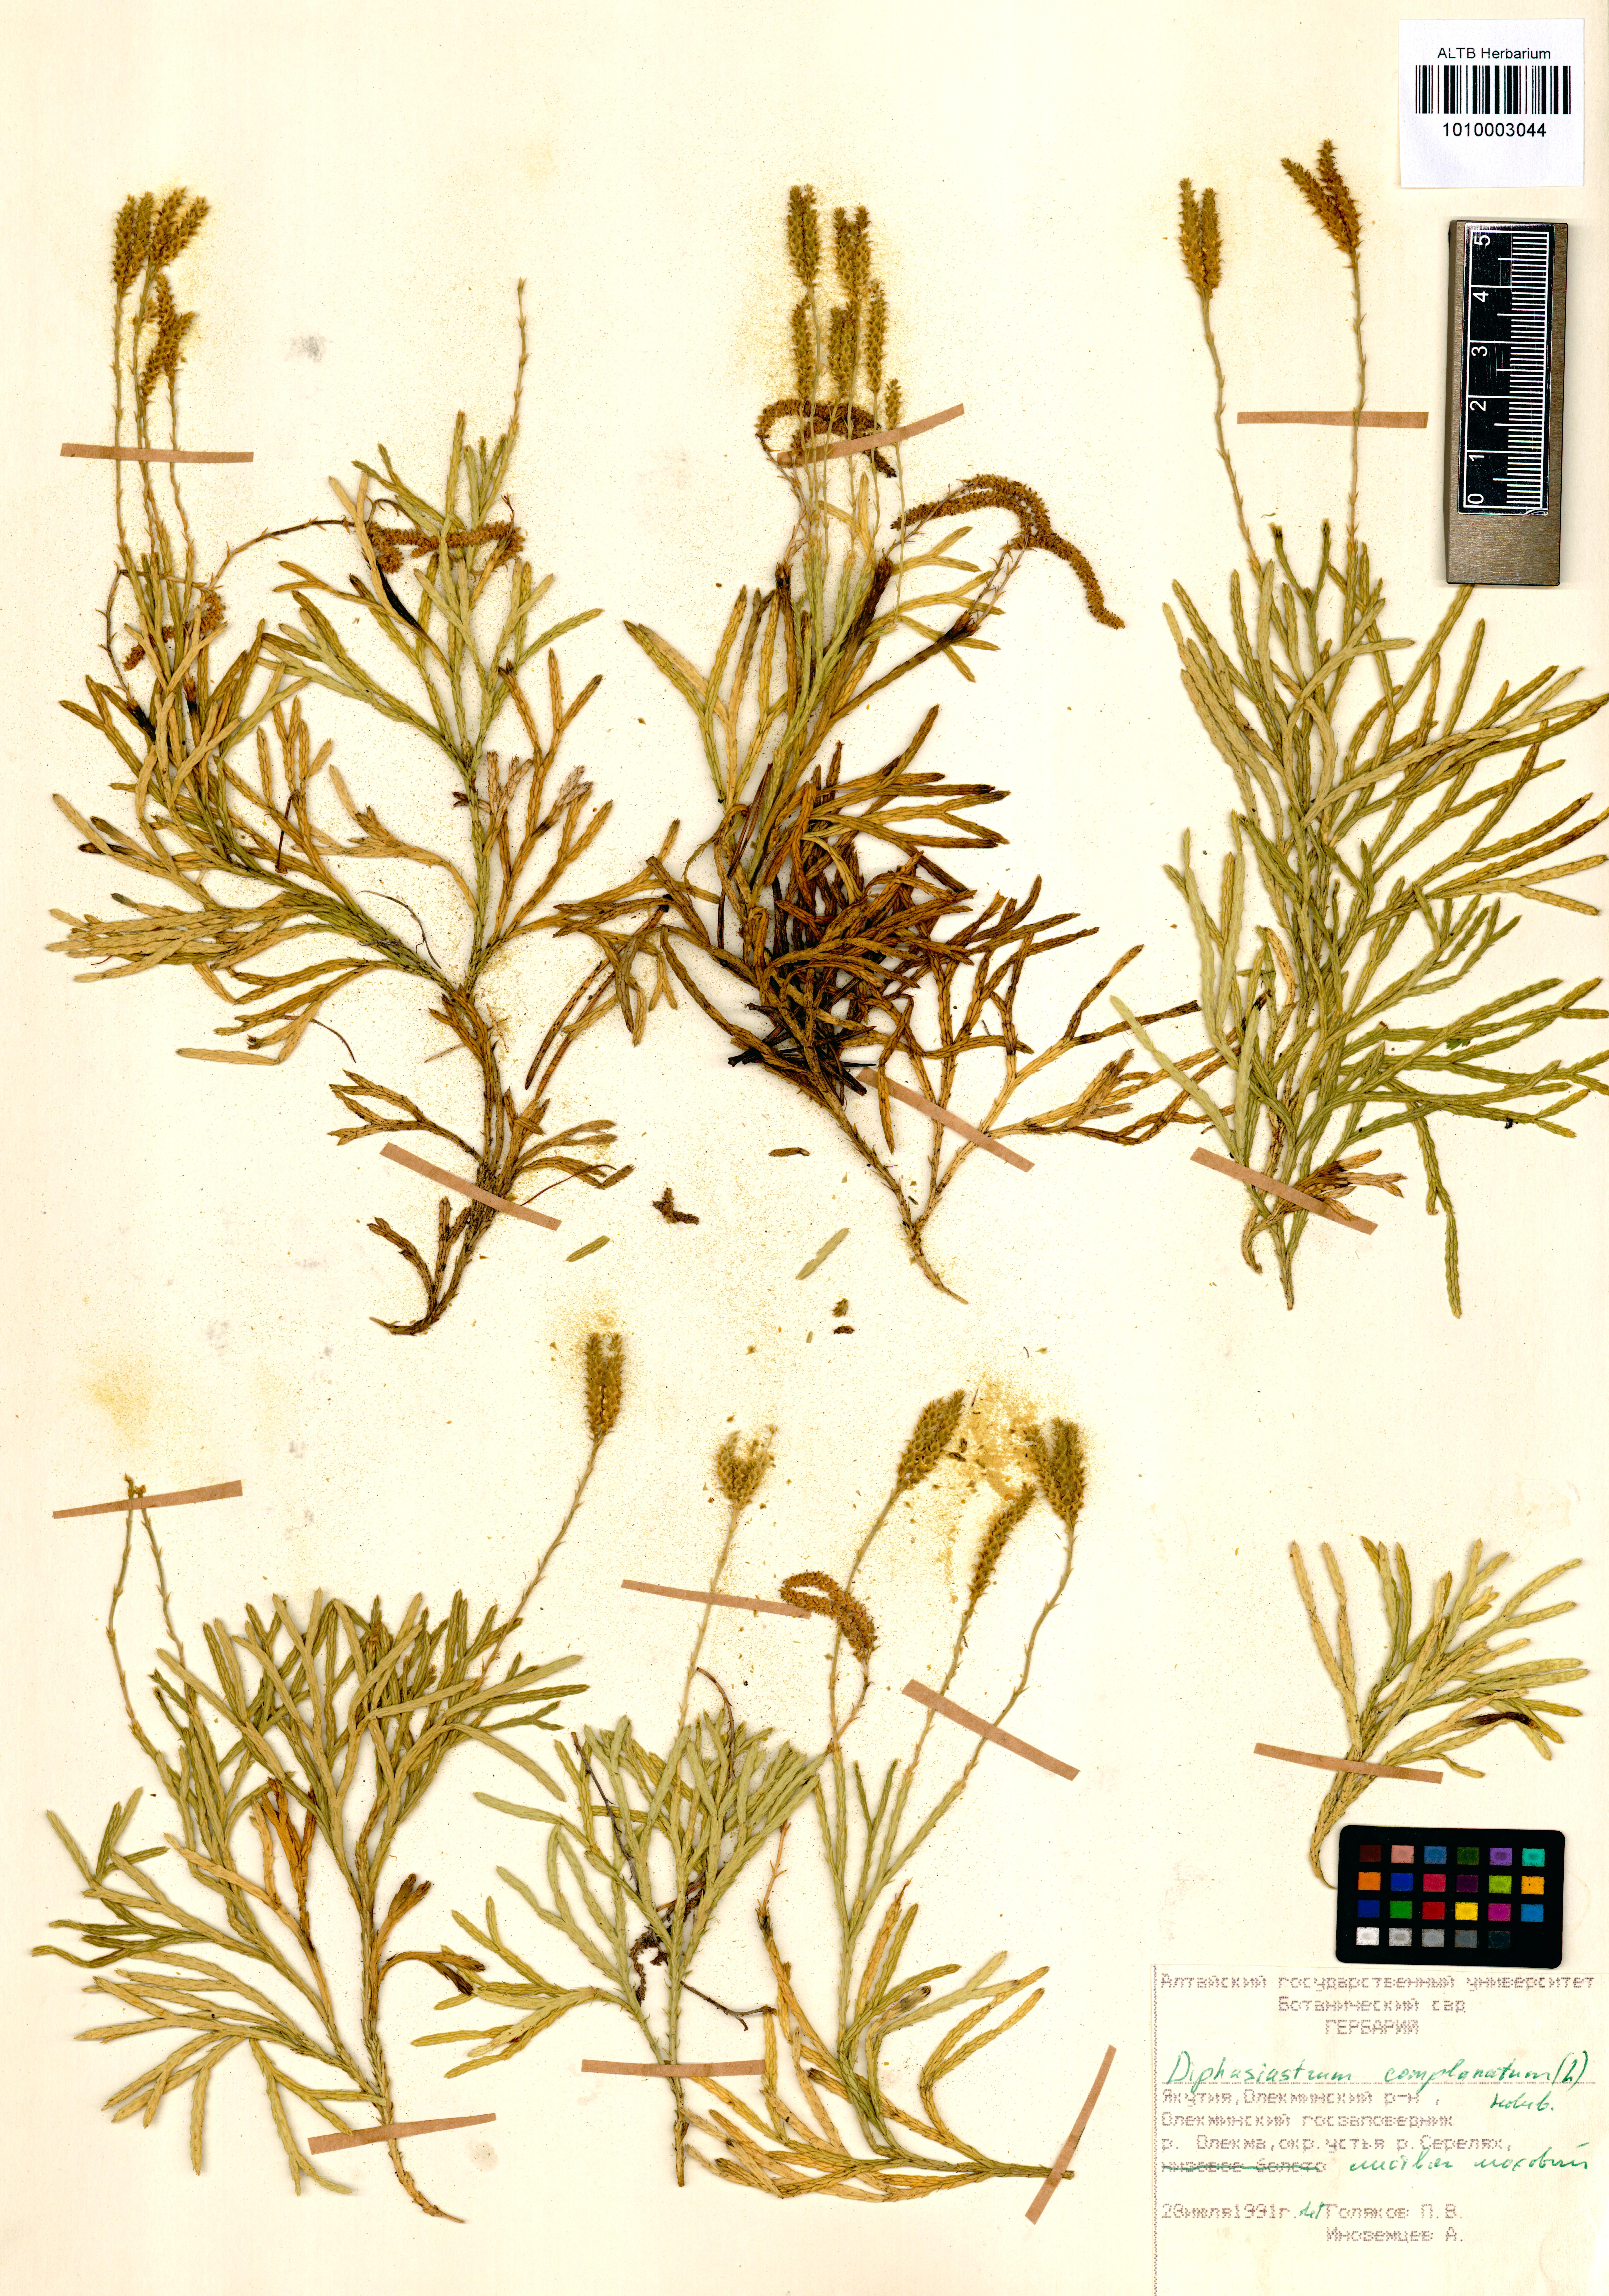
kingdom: Plantae
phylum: Tracheophyta
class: Lycopodiopsida
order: Lycopodiales
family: Lycopodiaceae
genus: Diphasiastrum
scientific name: Diphasiastrum complanatum
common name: Northern running-pine
